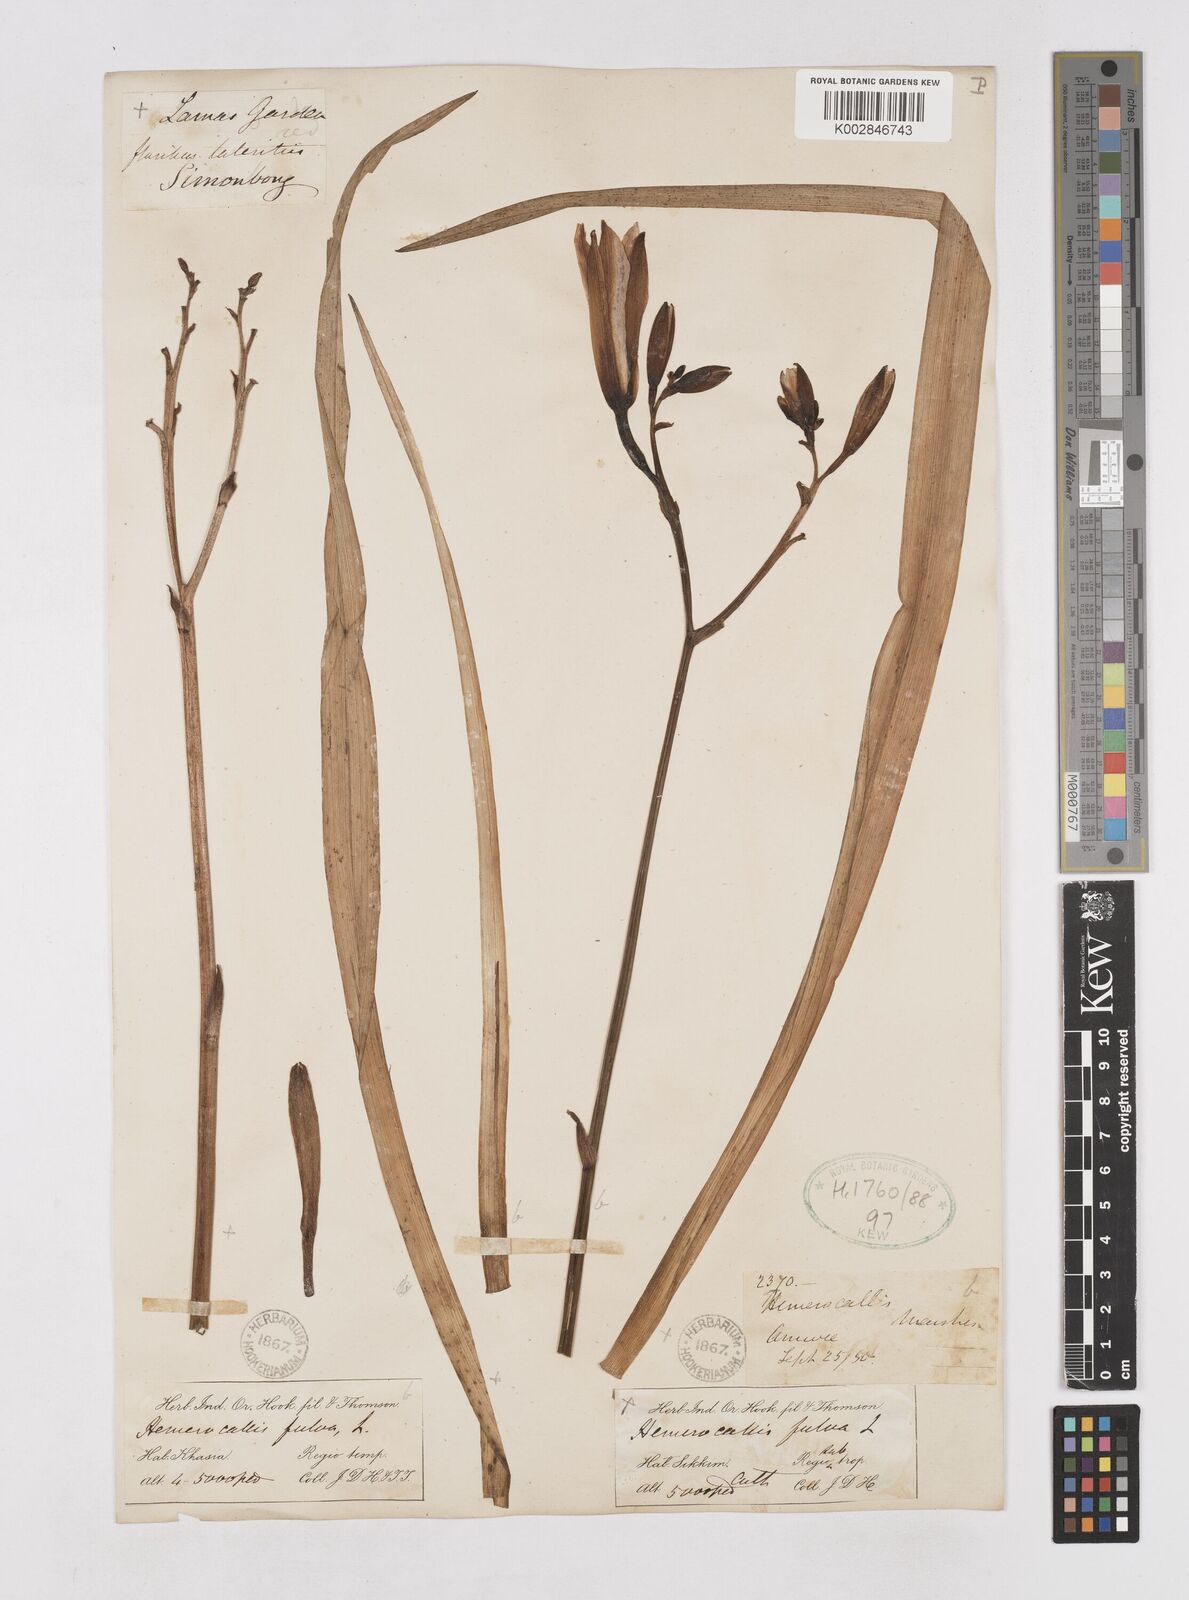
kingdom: Plantae
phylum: Tracheophyta
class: Liliopsida
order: Asparagales
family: Asphodelaceae
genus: Hemerocallis
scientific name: Hemerocallis fulva
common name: Orange day-lily
